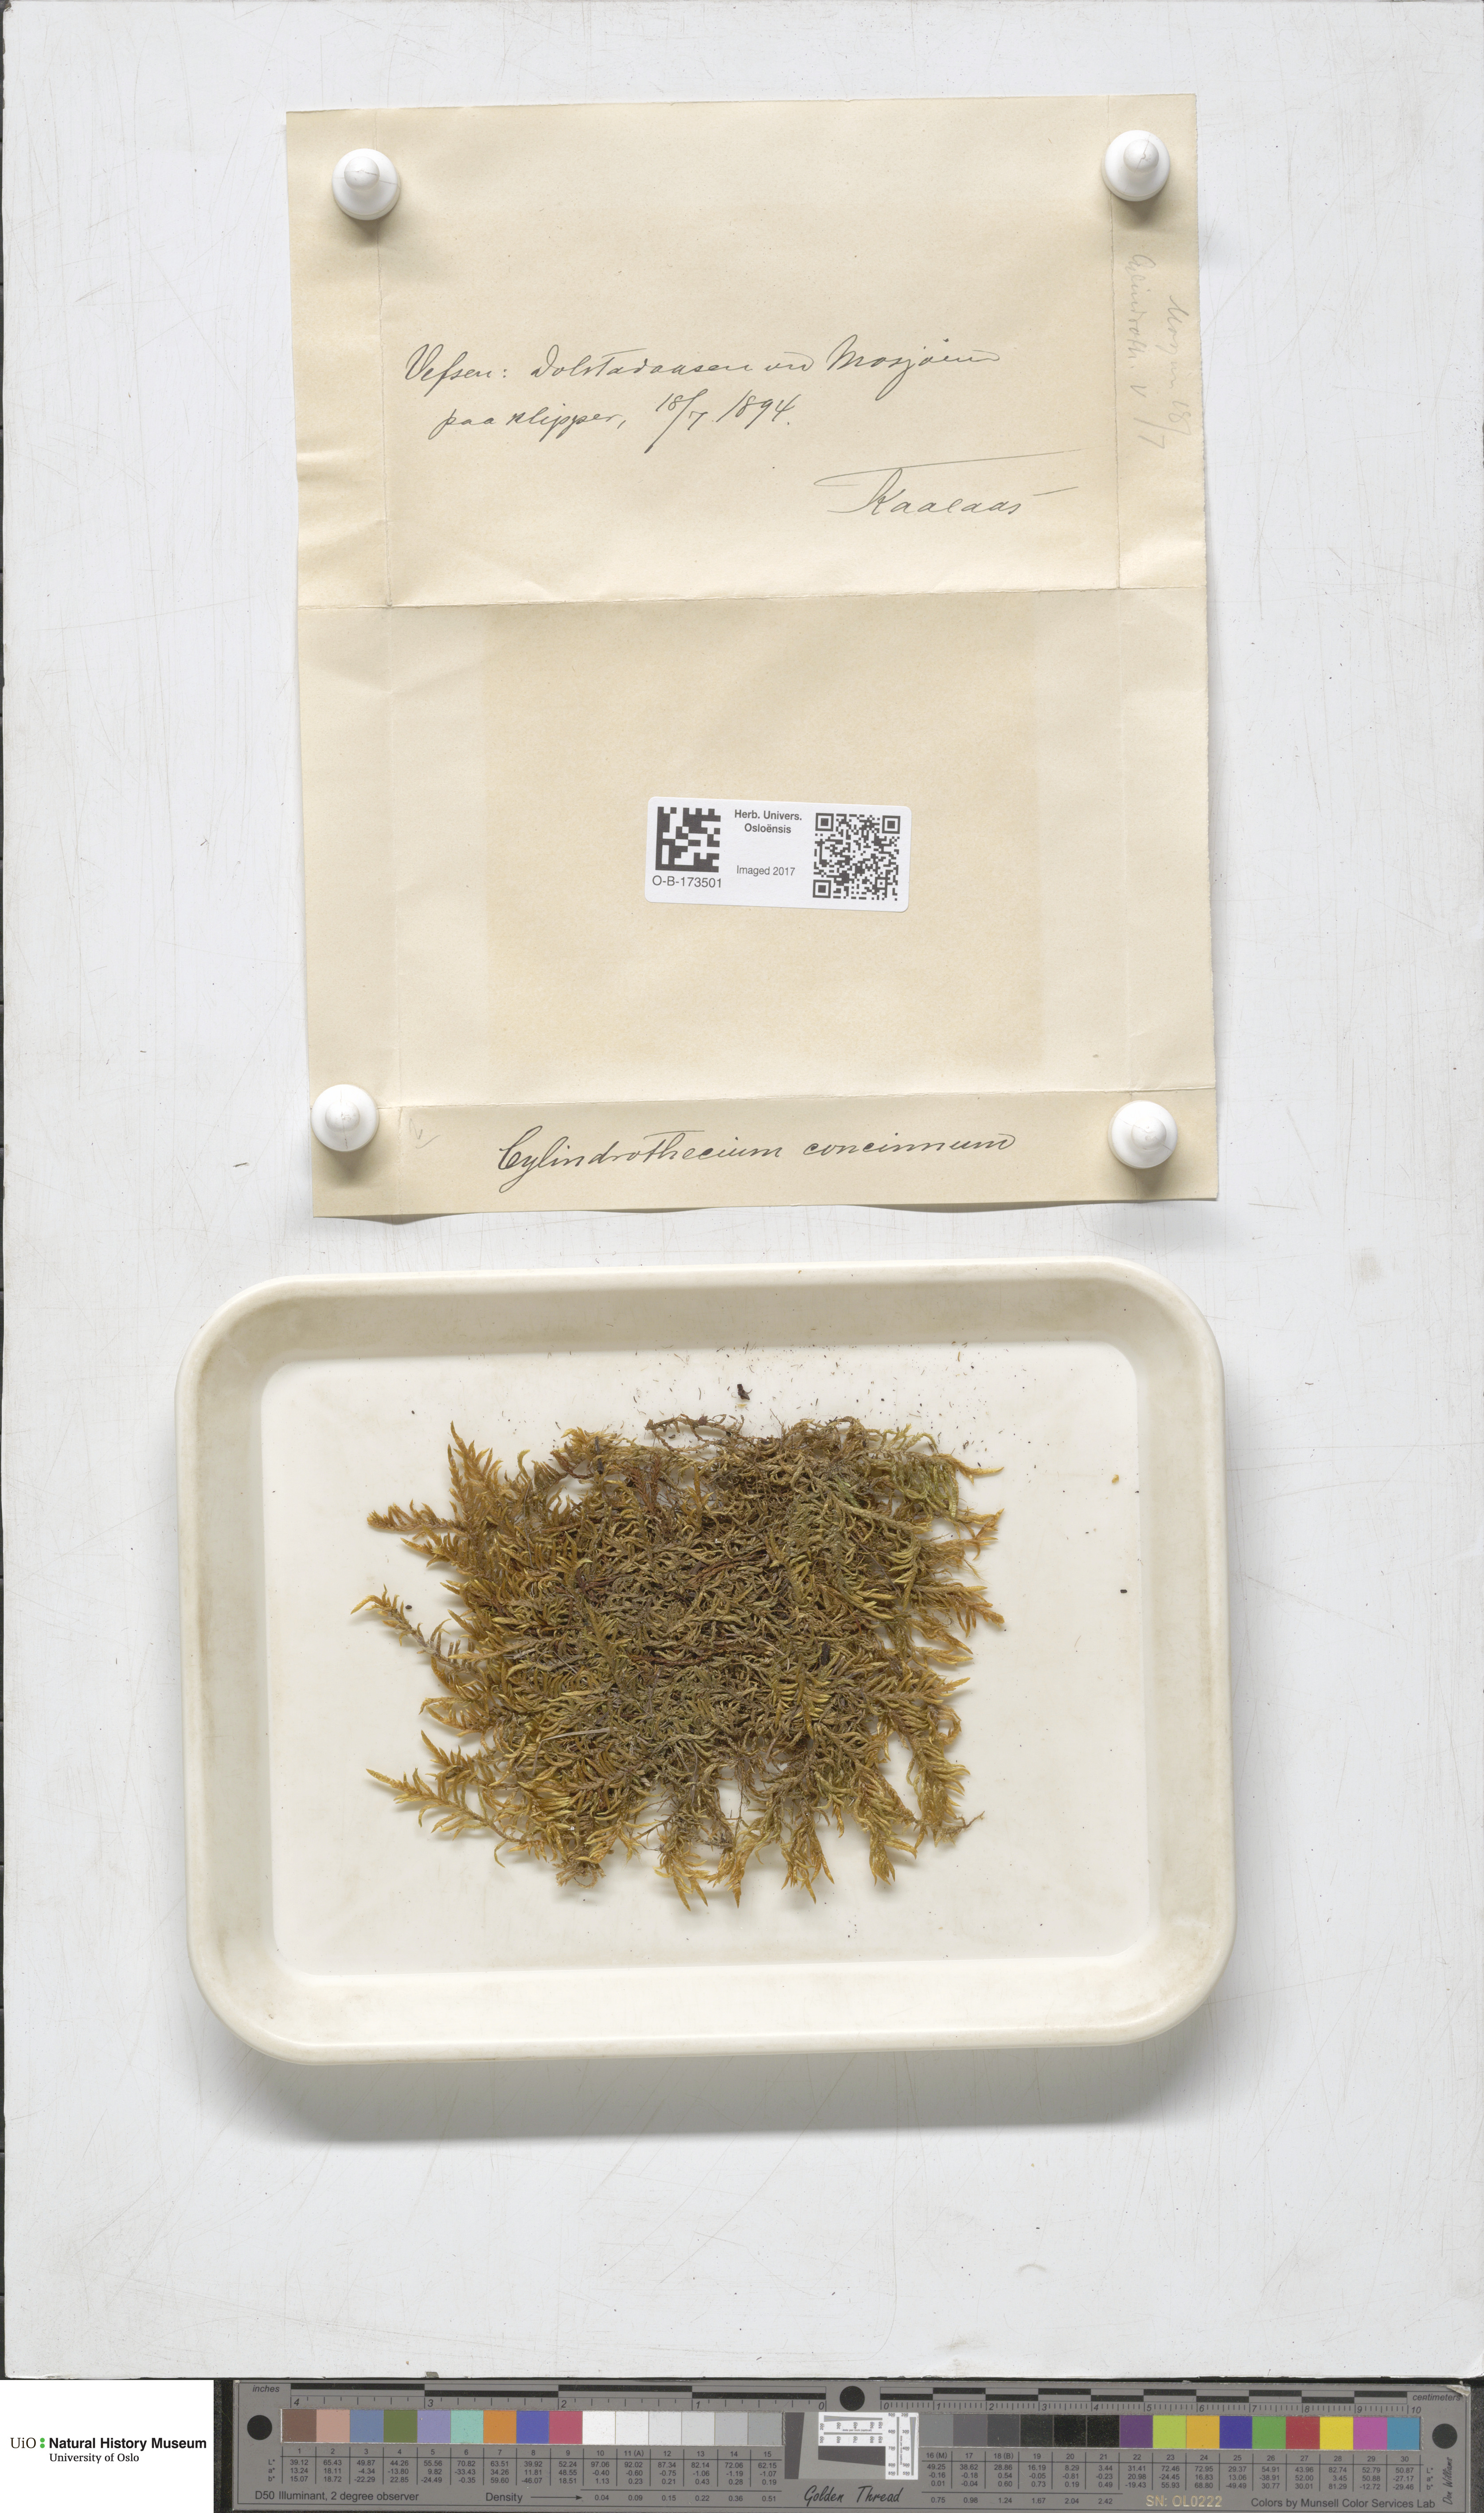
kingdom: Plantae
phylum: Bryophyta
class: Bryopsida
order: Hypnales
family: Entodontaceae
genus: Entodon
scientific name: Entodon concinnus
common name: Montagne's cylinder-moss
